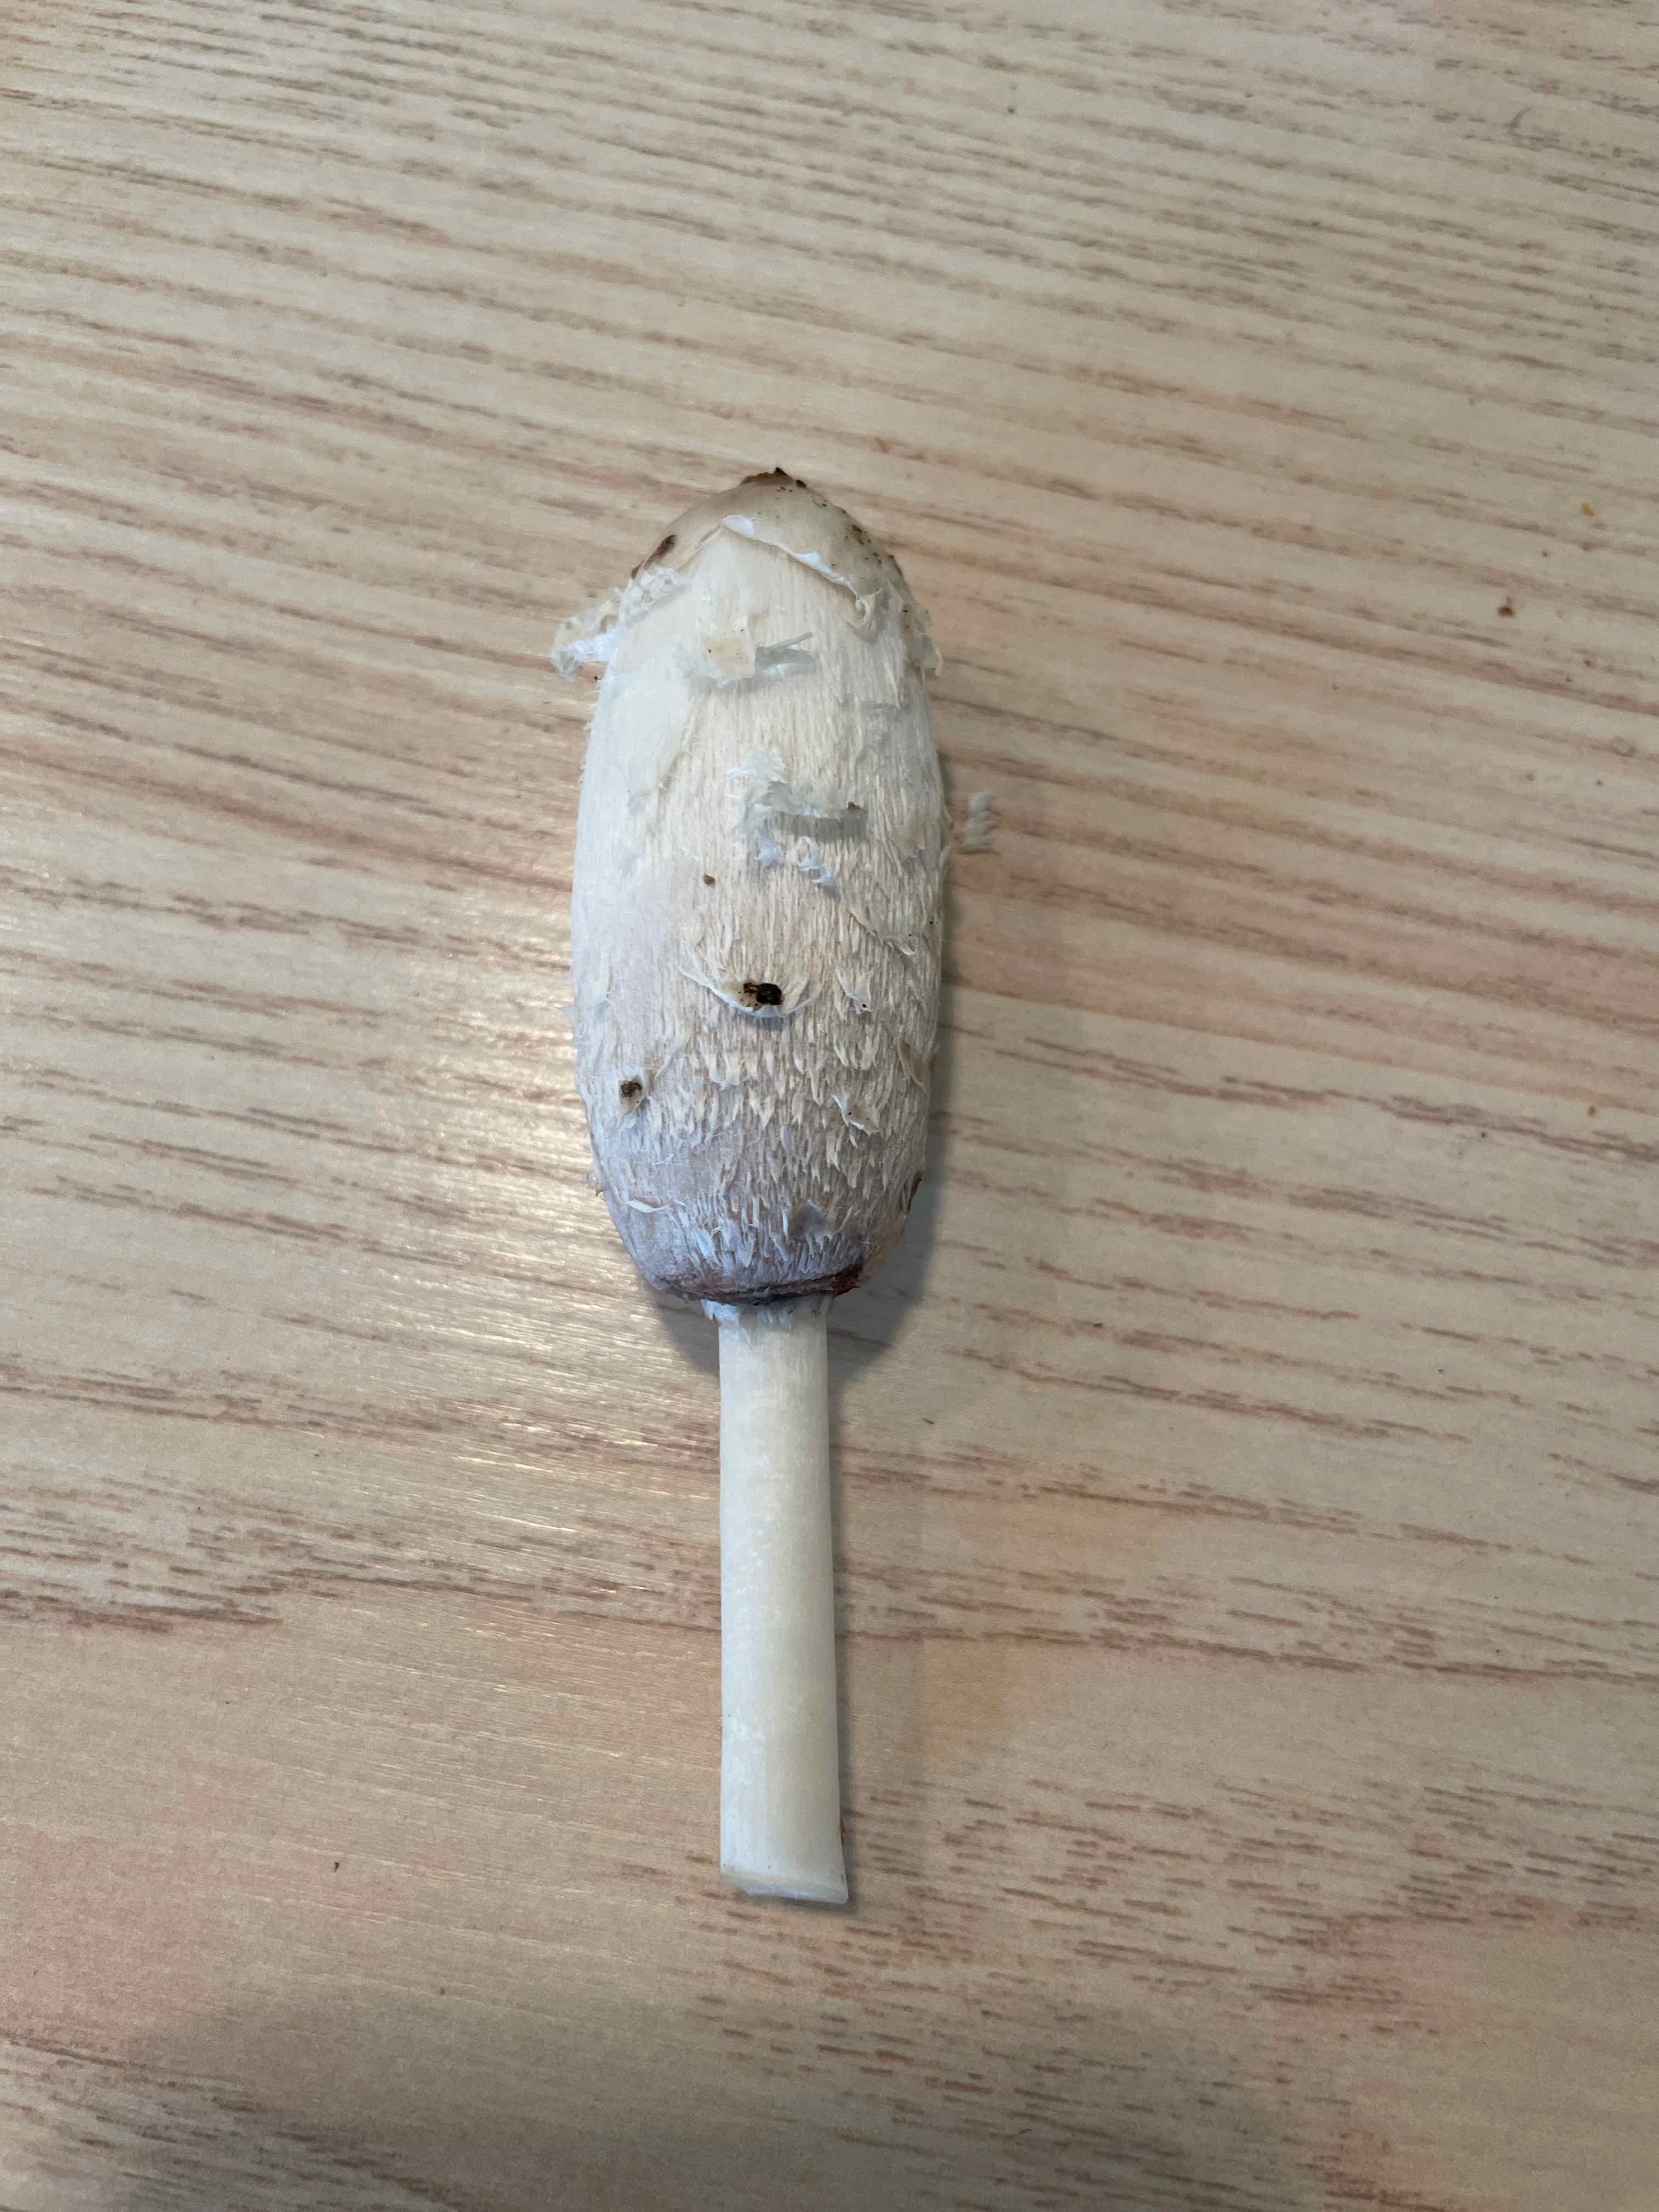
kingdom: Fungi
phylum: Basidiomycota
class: Agaricomycetes
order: Agaricales
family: Agaricaceae
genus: Coprinus
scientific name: Coprinus comatus
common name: stor parykhat
